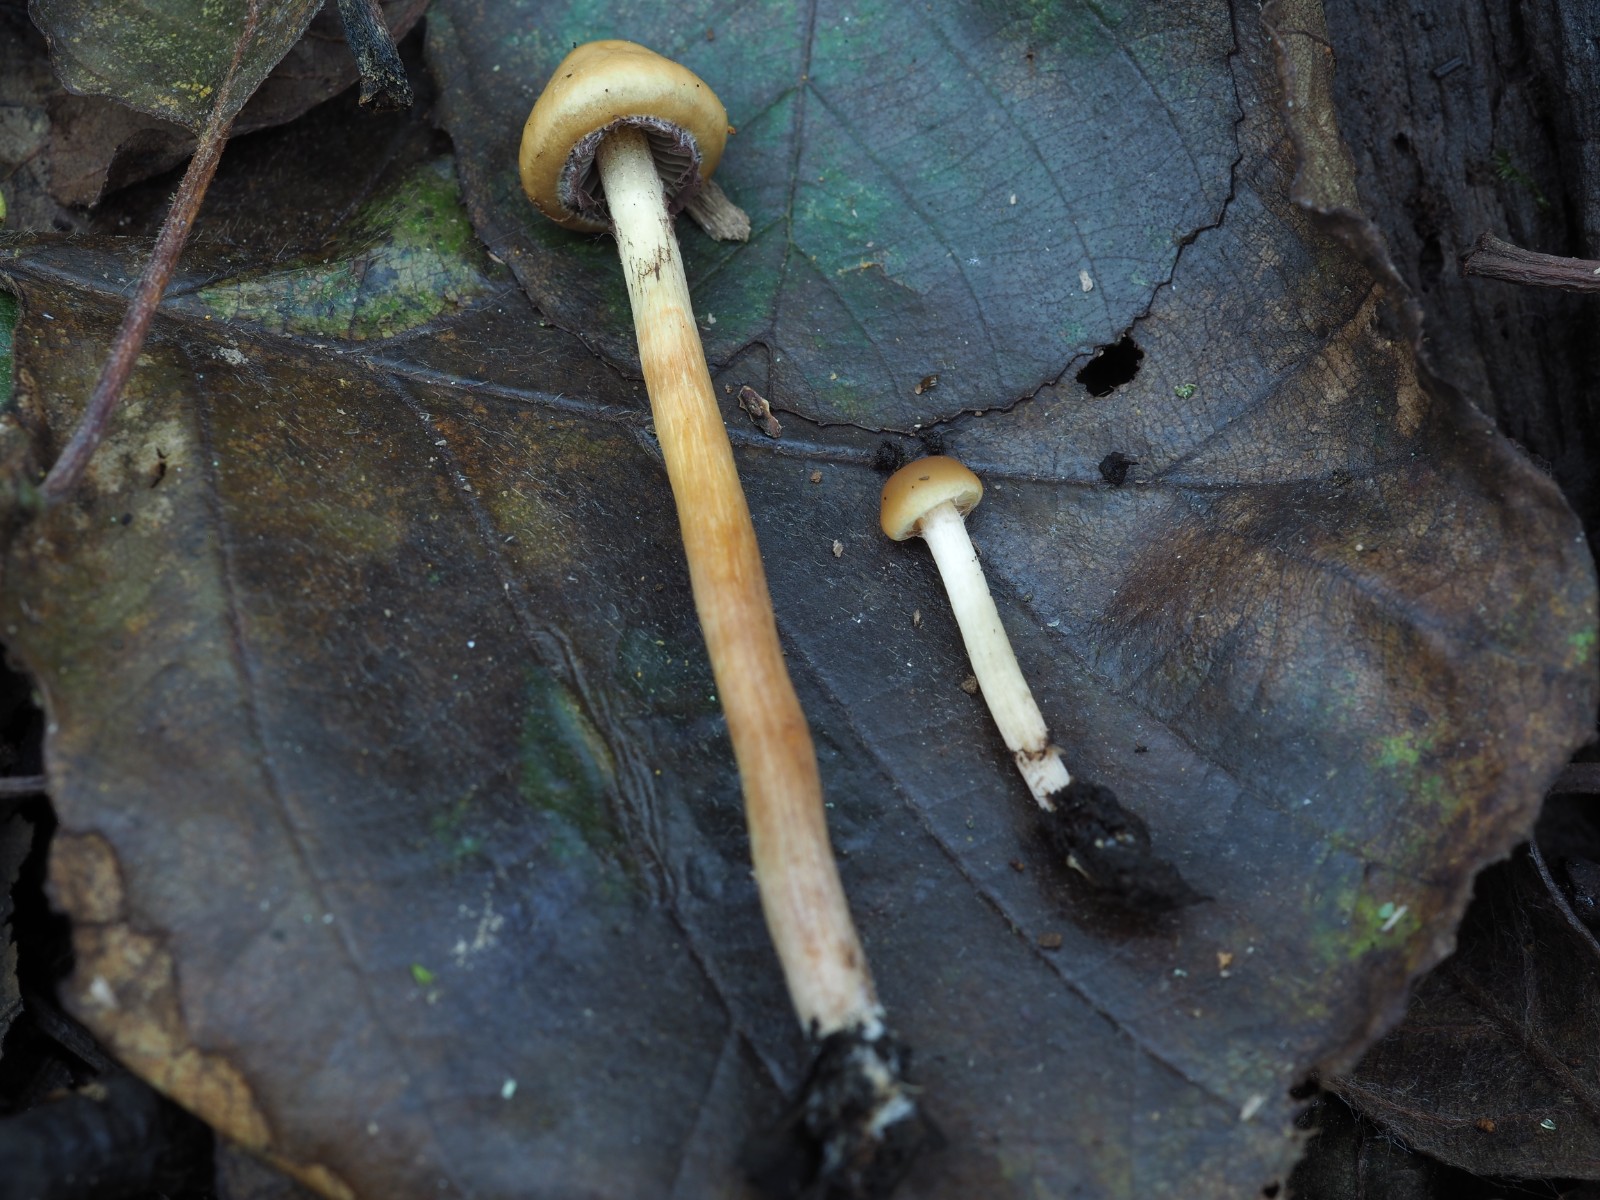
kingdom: Fungi
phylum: Basidiomycota
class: Agaricomycetes
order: Agaricales
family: Strophariaceae
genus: Hypholoma
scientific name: Hypholoma subericaeum
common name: eng-svovlhat
